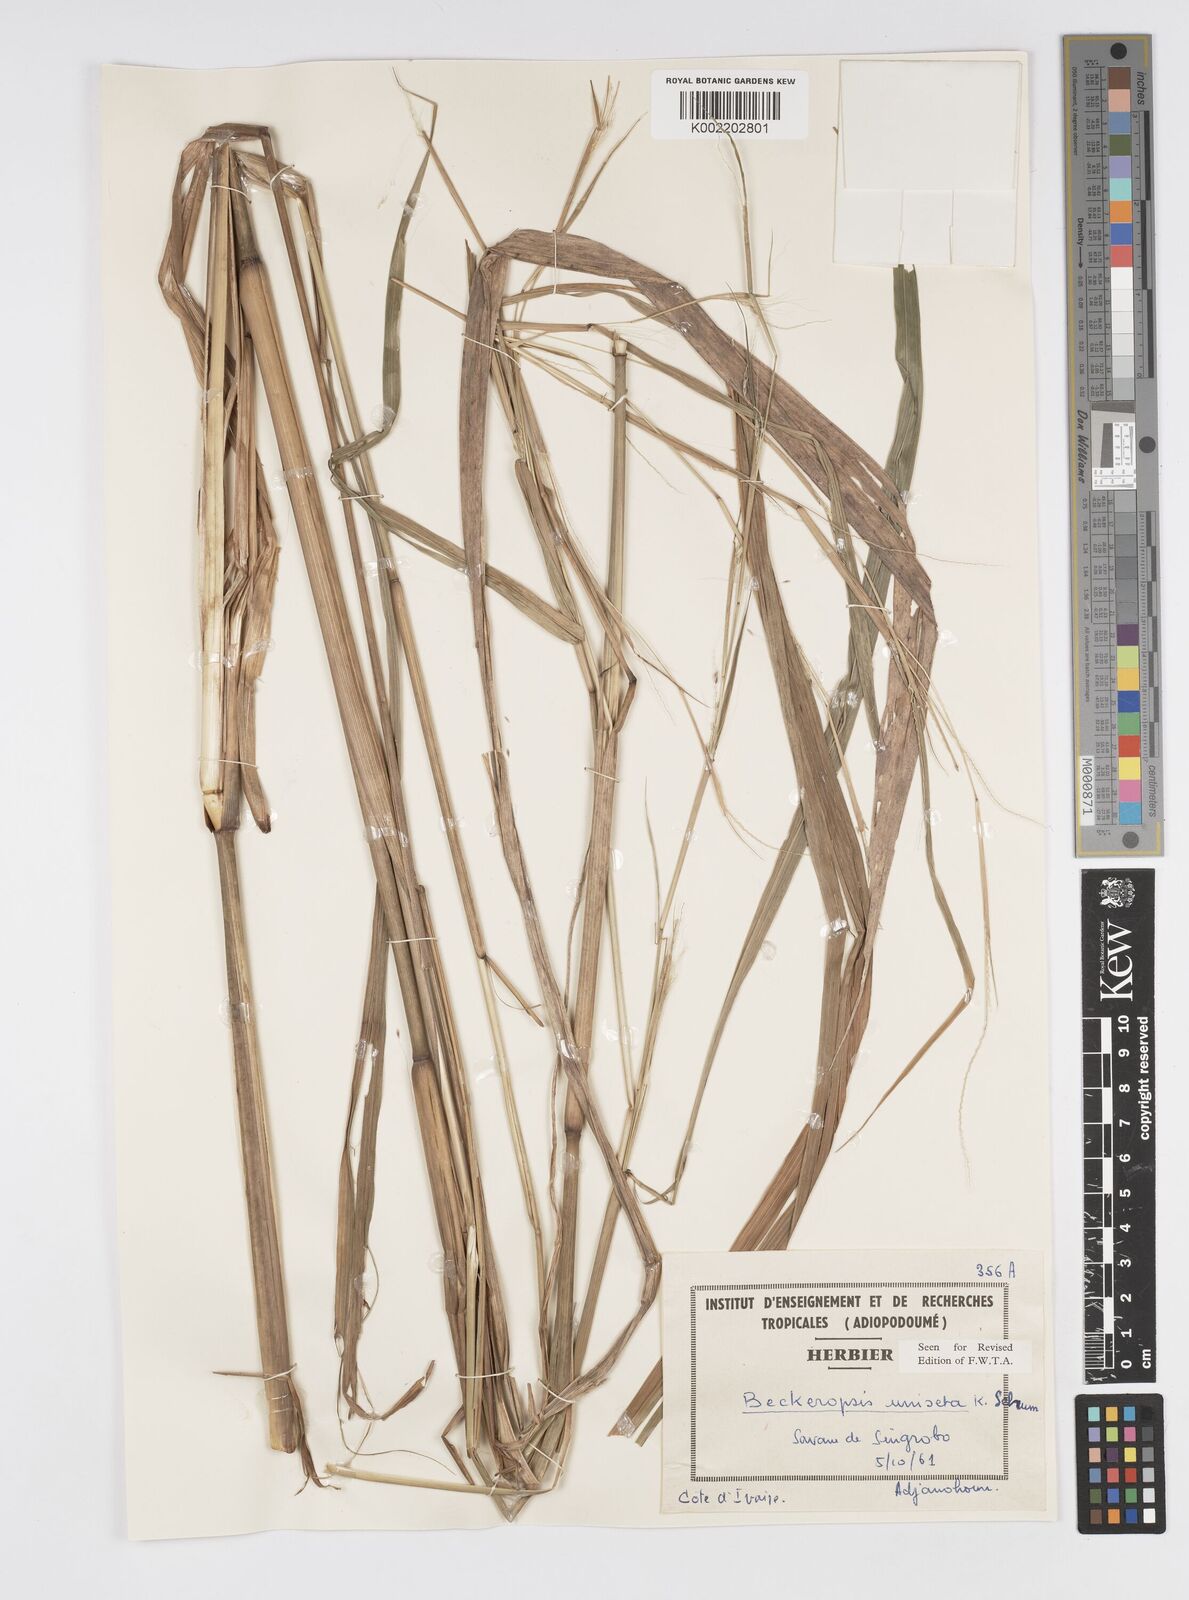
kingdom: Plantae
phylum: Tracheophyta
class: Liliopsida
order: Poales
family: Poaceae
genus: Cenchrus
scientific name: Cenchrus unisetus
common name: Natal grass
